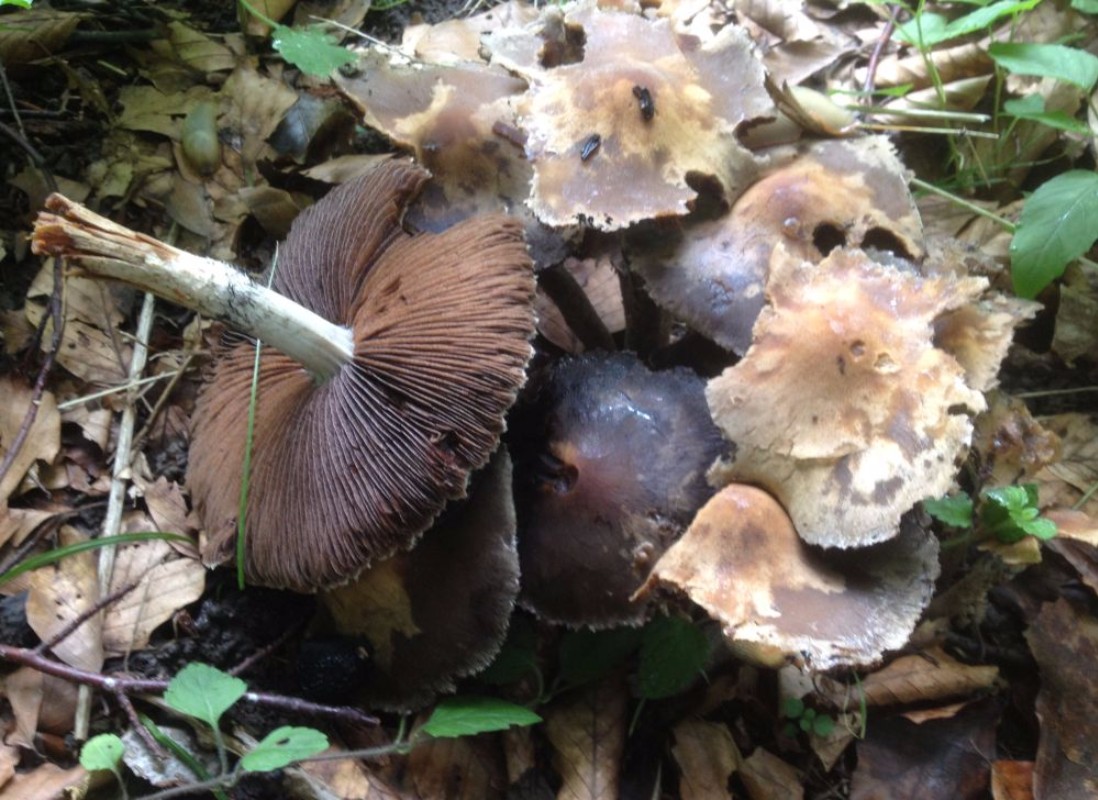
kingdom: Fungi
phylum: Basidiomycota
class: Agaricomycetes
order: Agaricales
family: Psathyrellaceae
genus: Lacrymaria
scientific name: Lacrymaria
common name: mørkhat
